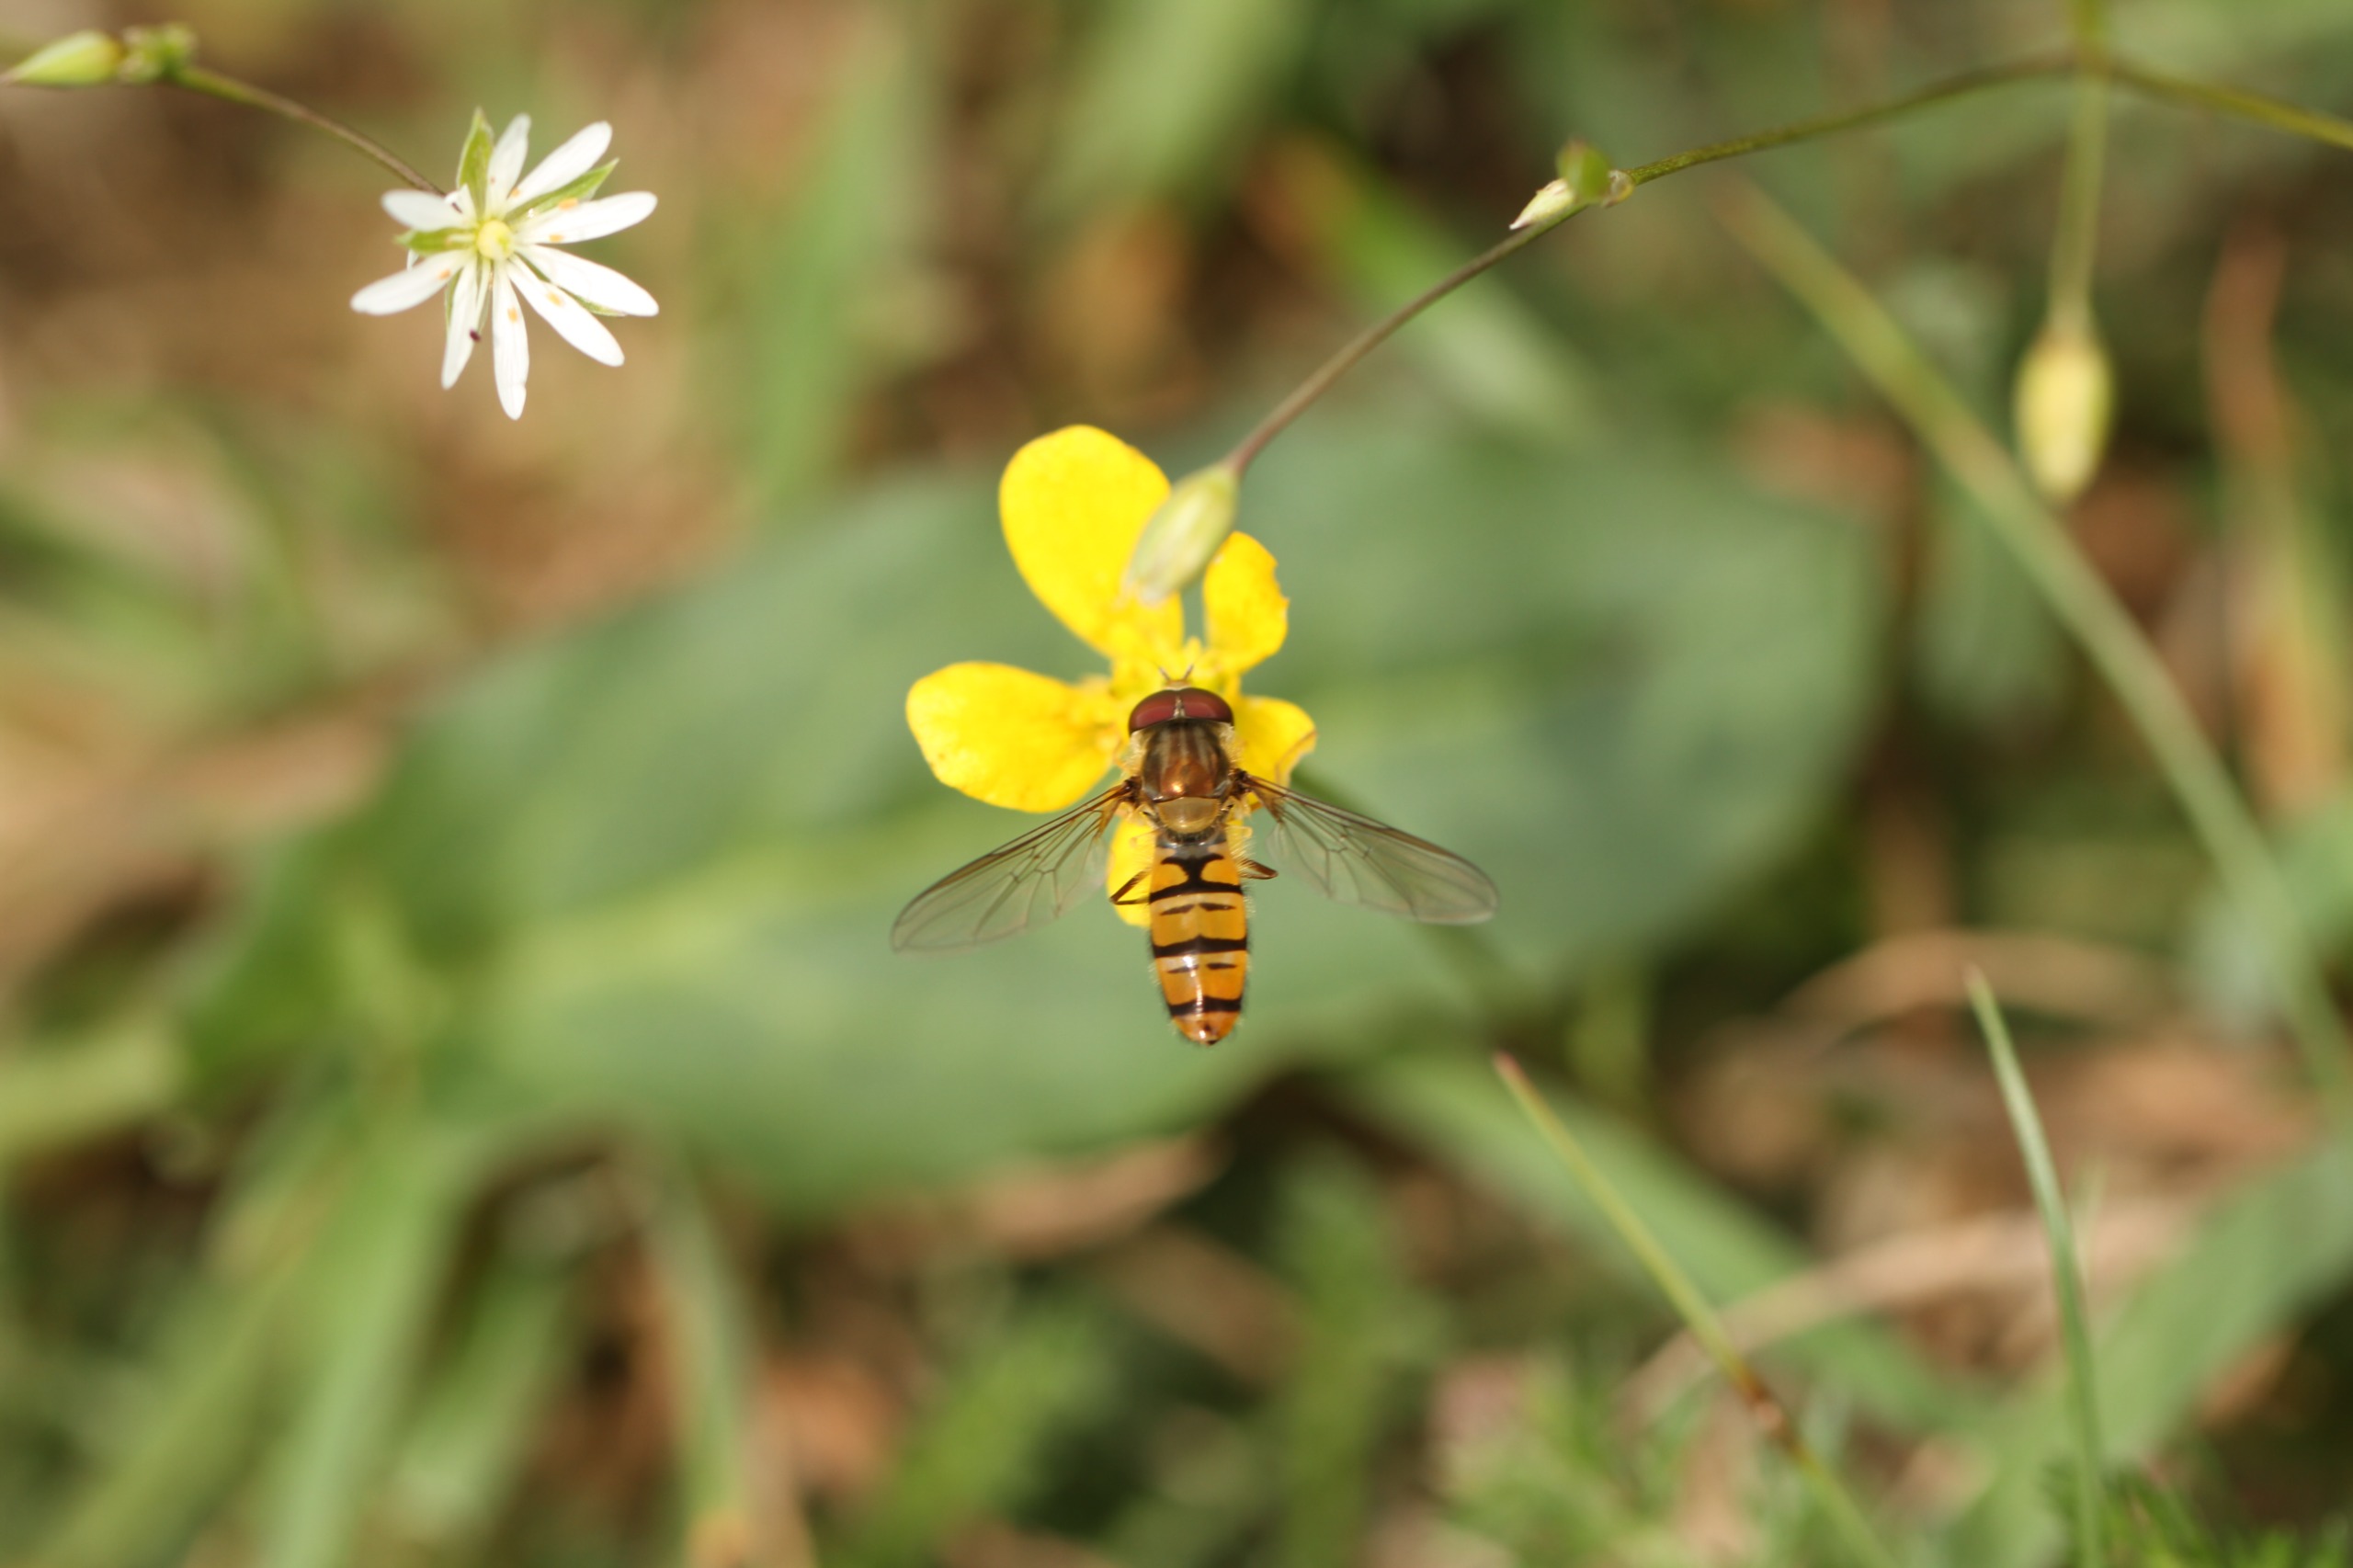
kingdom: Animalia
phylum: Arthropoda
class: Insecta
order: Diptera
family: Syrphidae
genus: Episyrphus
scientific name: Episyrphus balteatus
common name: Dobbeltbåndet svirreflue
